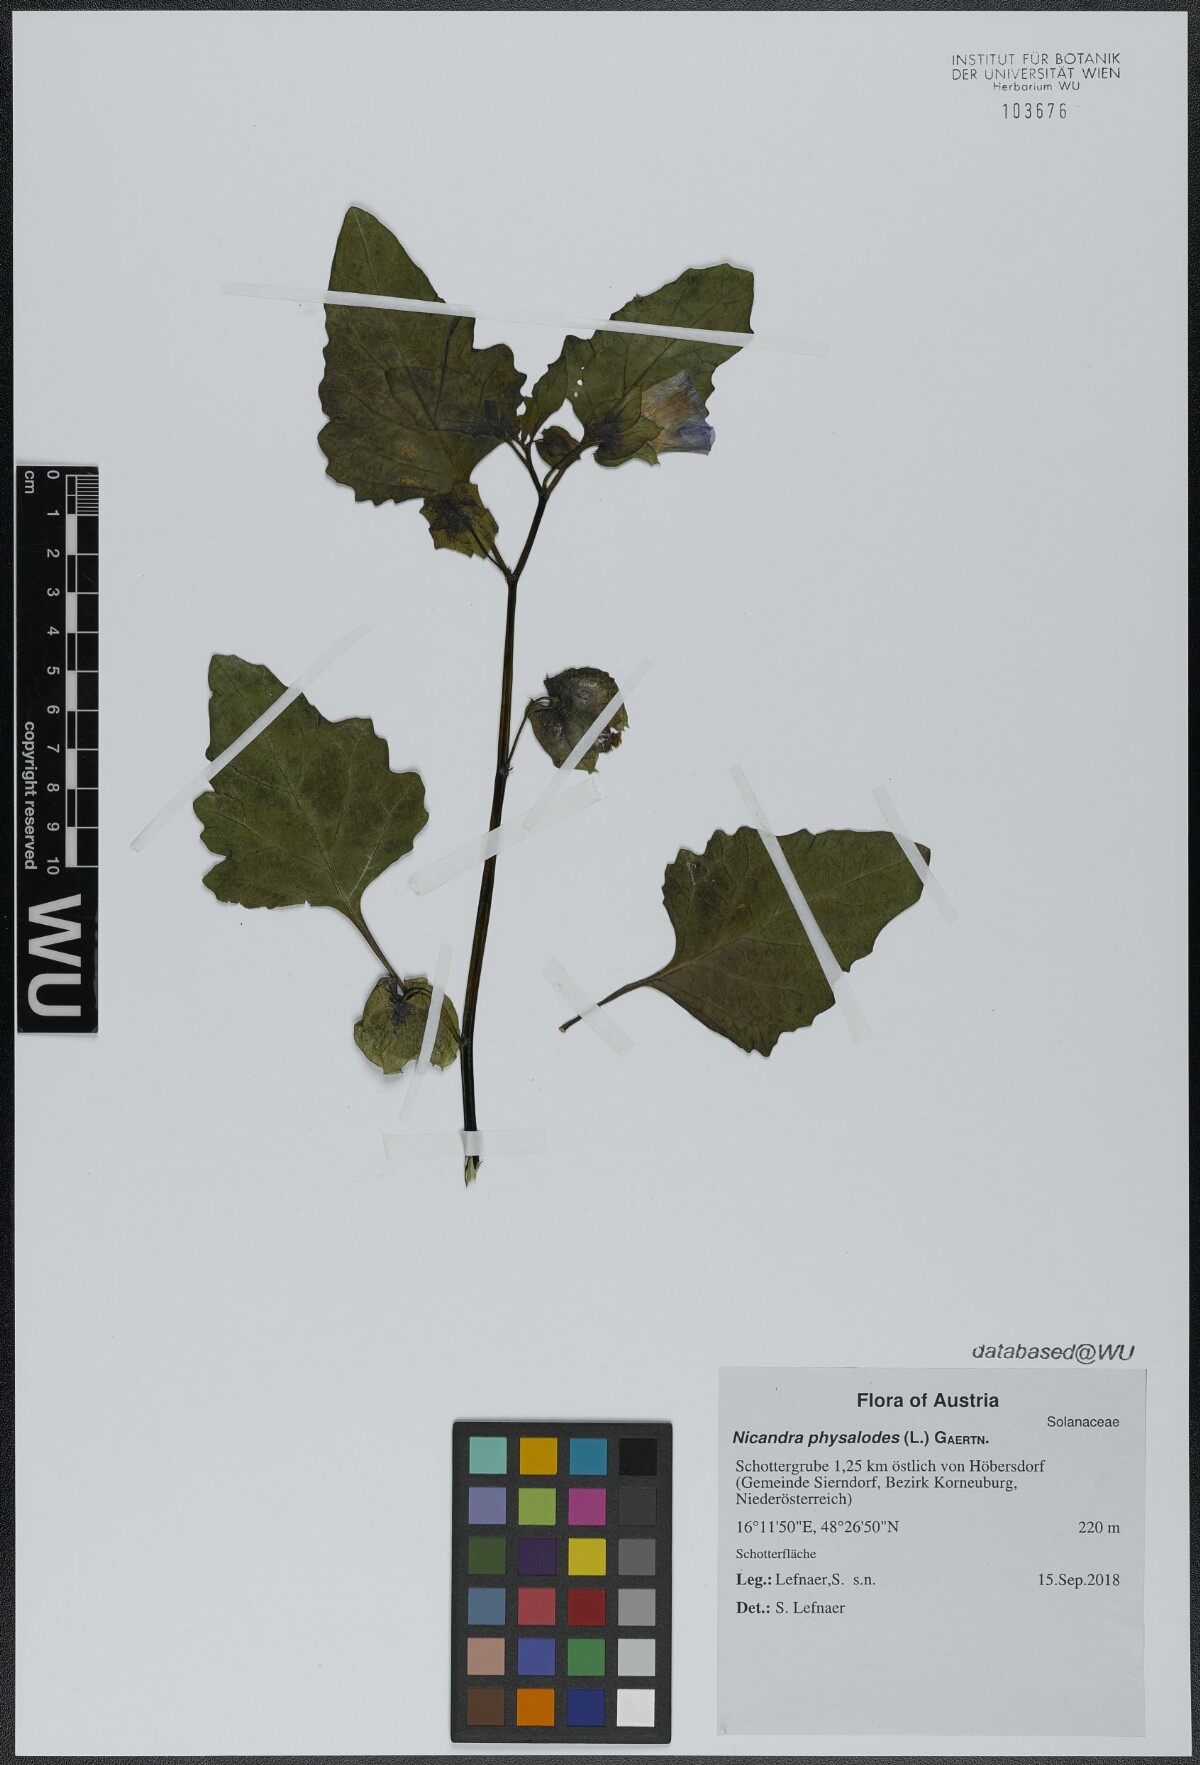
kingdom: Plantae
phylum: Tracheophyta
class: Magnoliopsida
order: Solanales
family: Solanaceae
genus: Nicandra
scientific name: Nicandra physalodes
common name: Apple-of-peru
